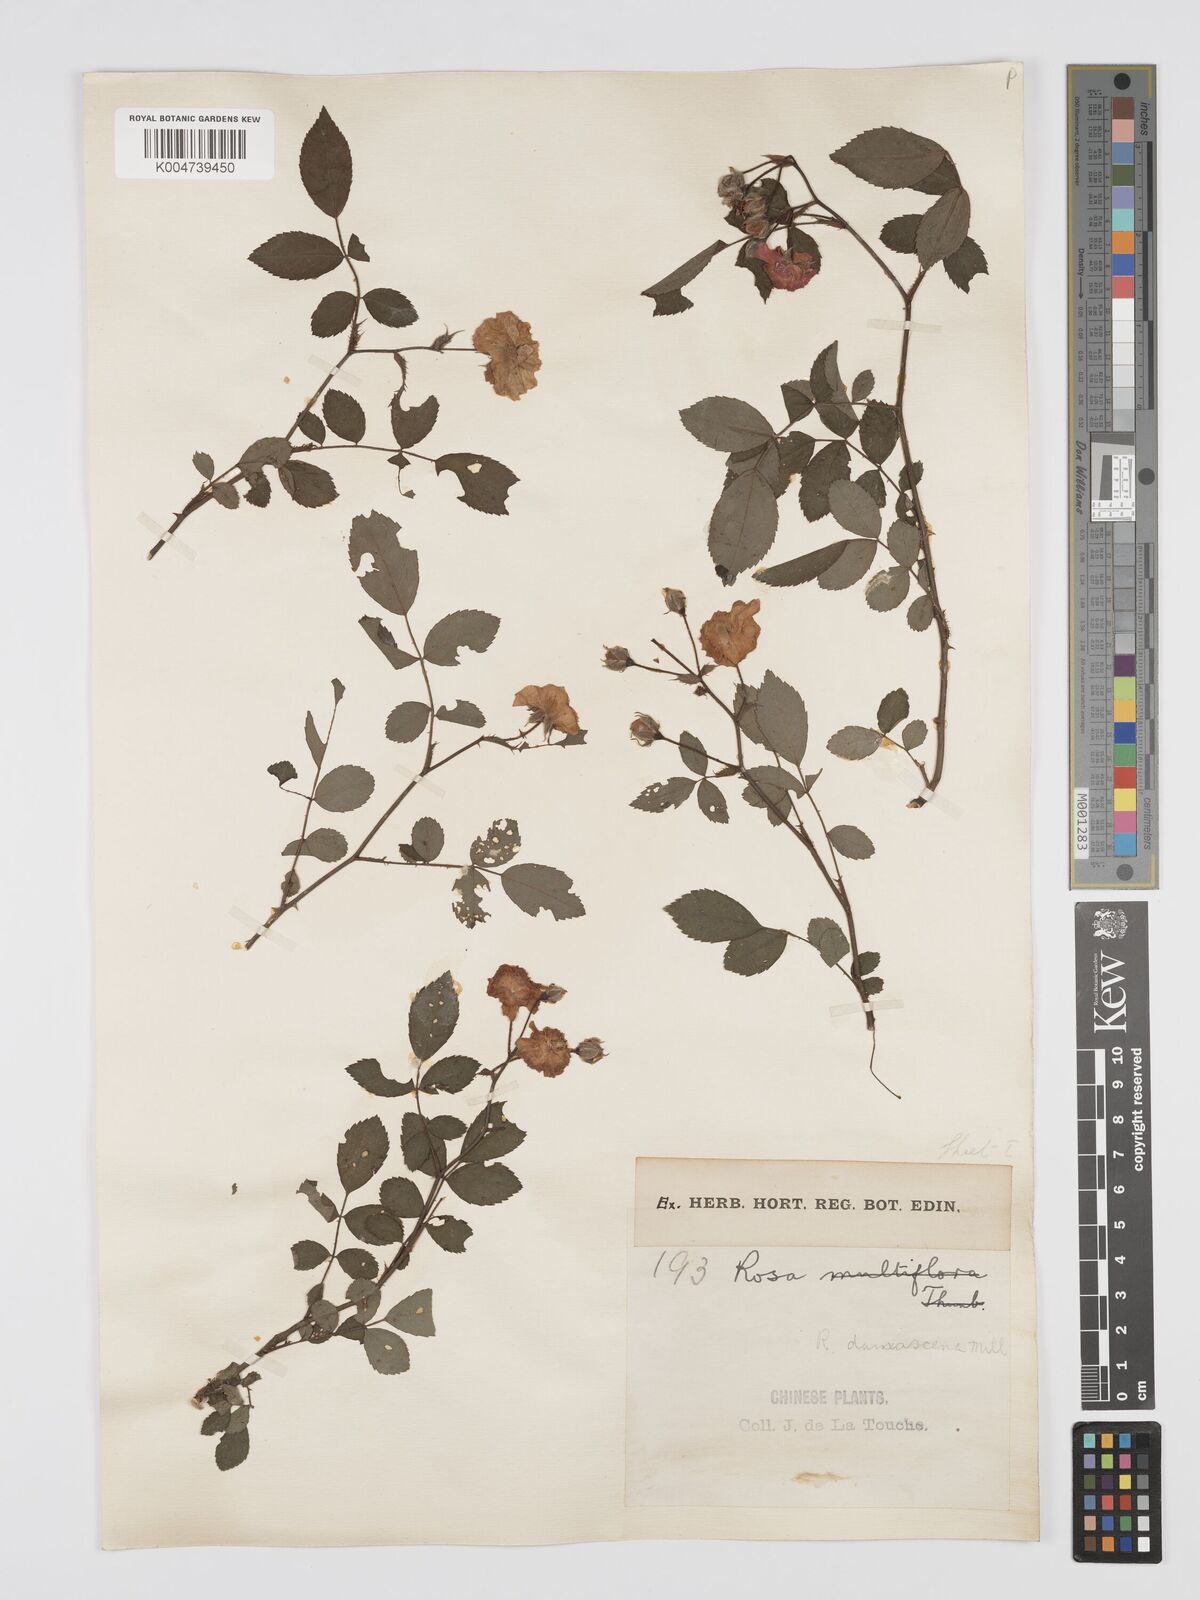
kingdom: Plantae
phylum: Tracheophyta
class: Magnoliopsida
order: Rosales
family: Rosaceae
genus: Rosa
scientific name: Rosa
